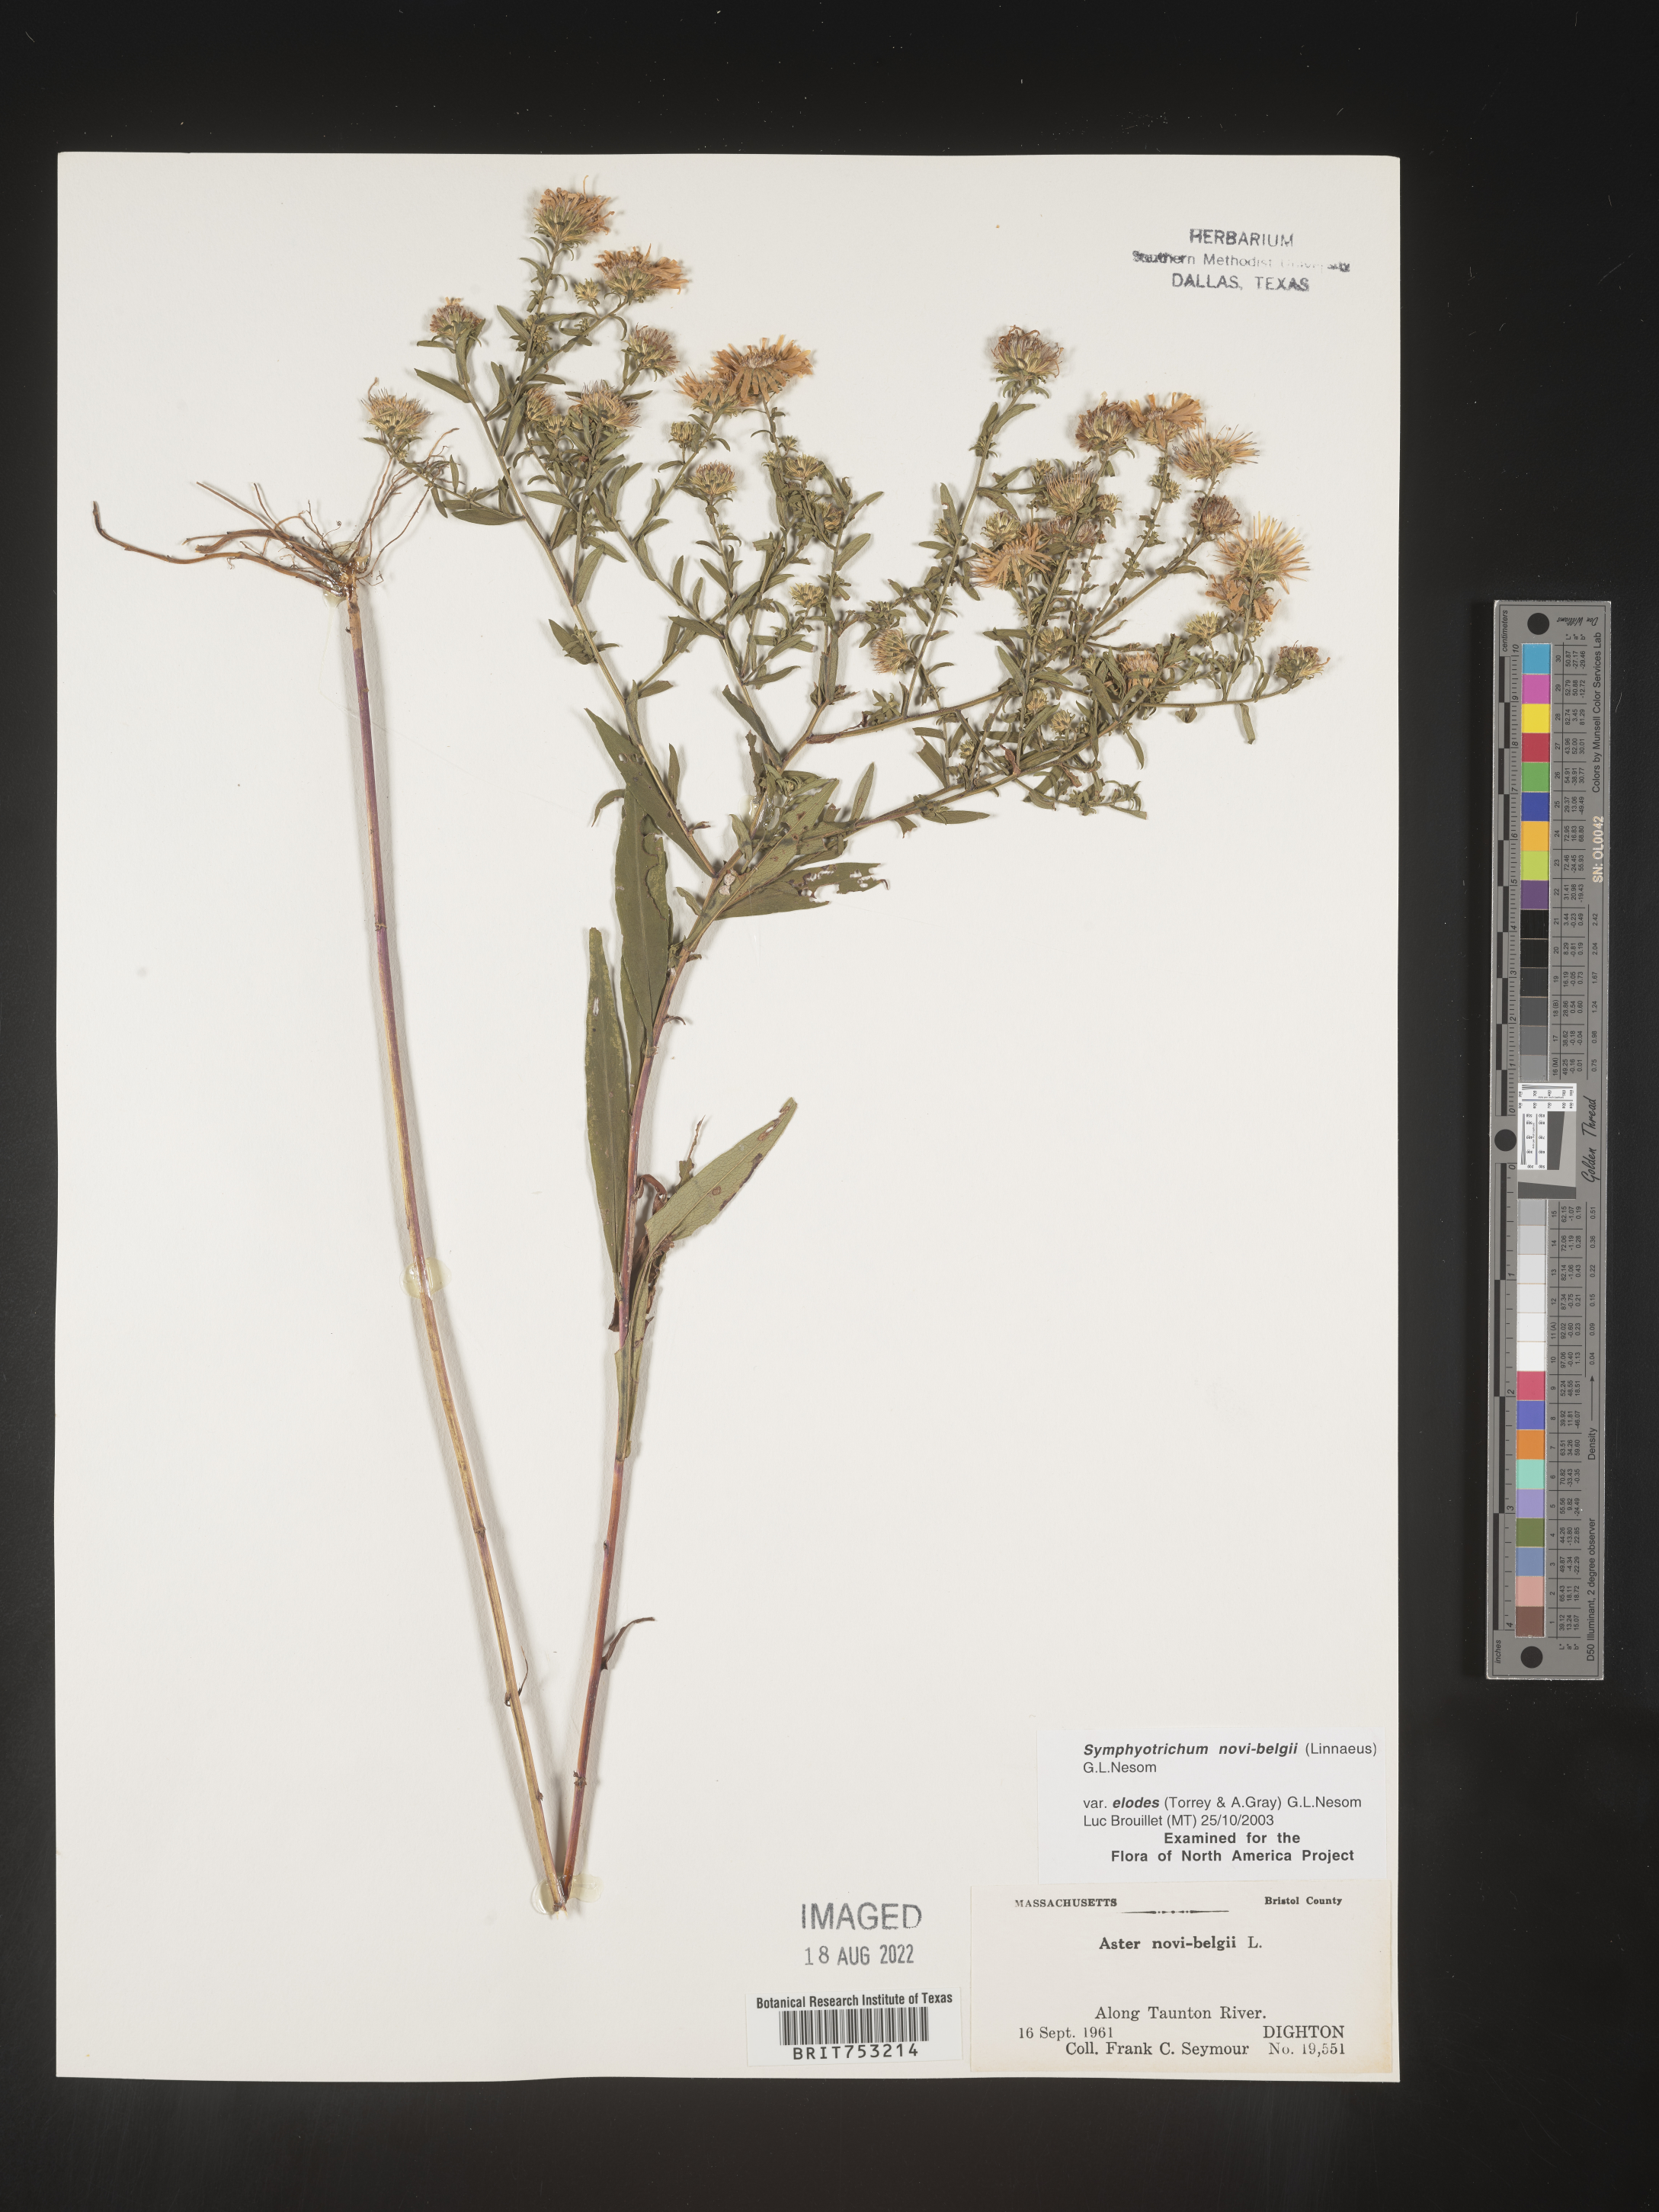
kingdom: Plantae
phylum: Tracheophyta
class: Magnoliopsida
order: Asterales
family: Asteraceae
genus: Symphyotrichum
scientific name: Symphyotrichum novi-belgii
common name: Michaelmas daisy
